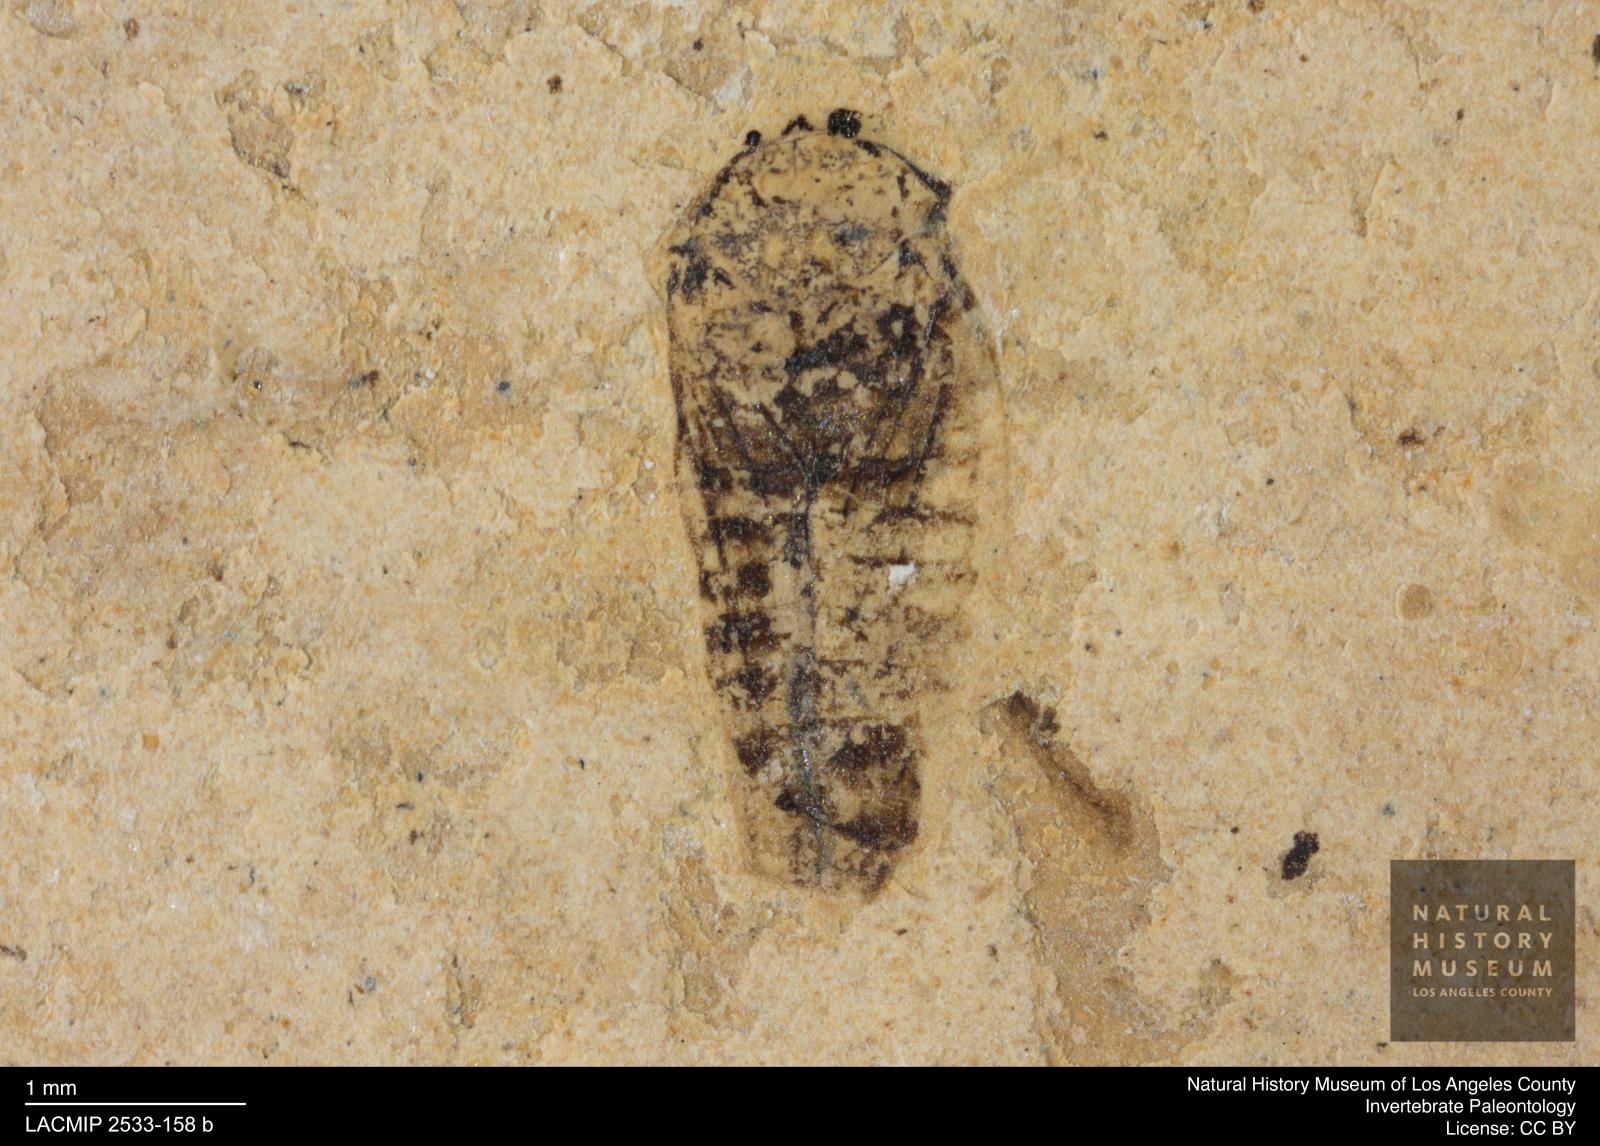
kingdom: Animalia
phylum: Arthropoda
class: Insecta
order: Hemiptera
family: Cicadellidae
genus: Iassus
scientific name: Iassus sepultus
